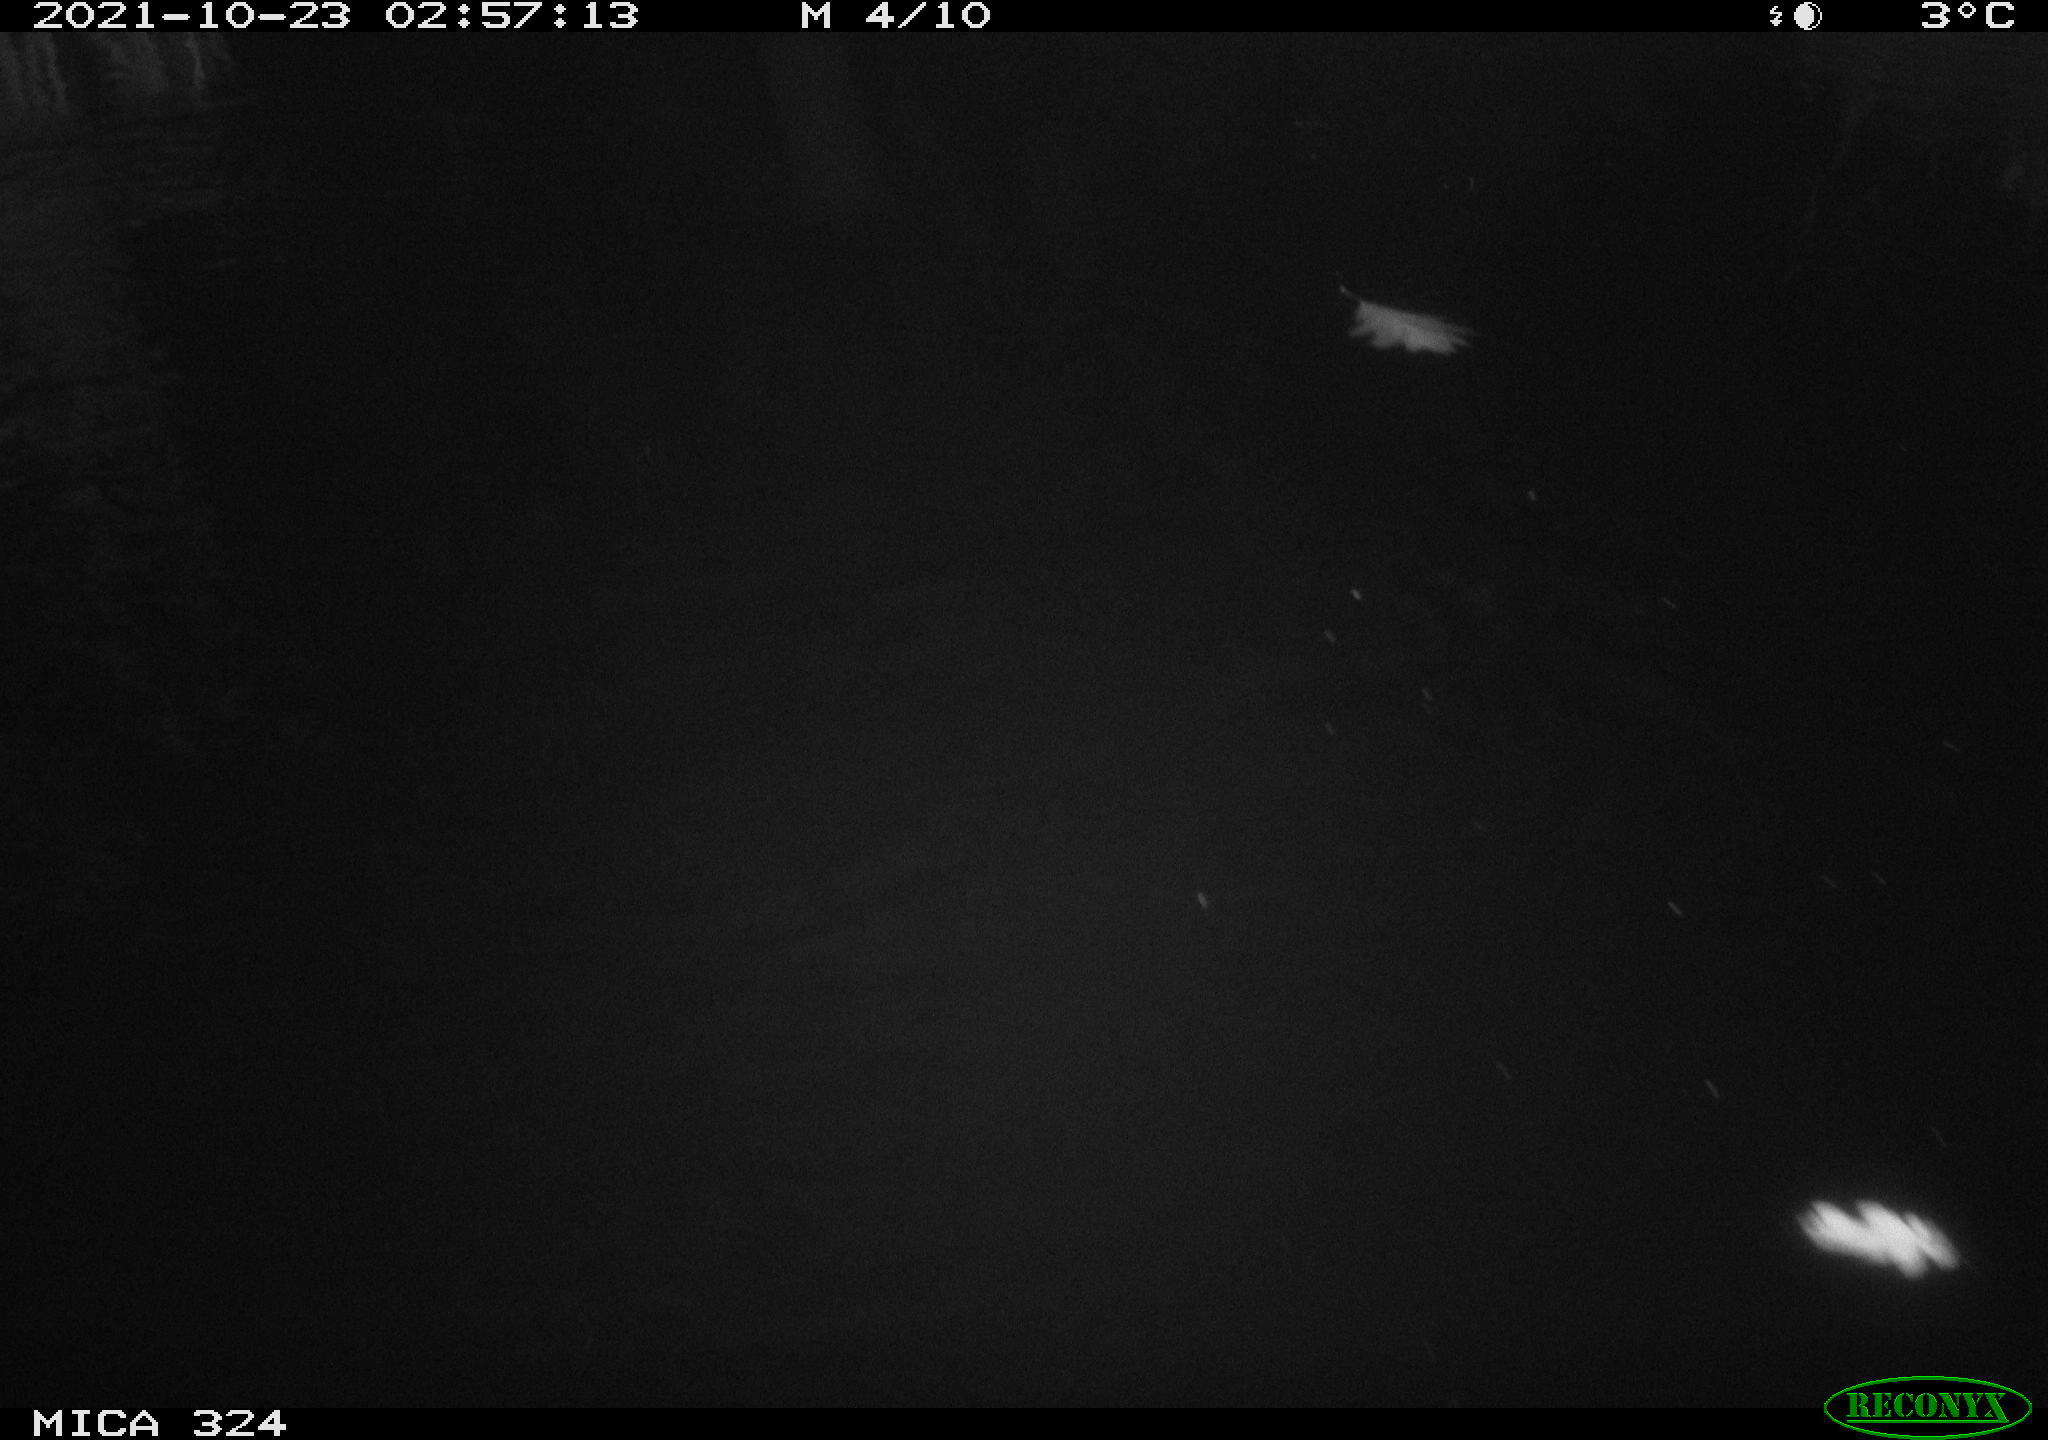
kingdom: Animalia
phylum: Chordata
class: Mammalia
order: Rodentia
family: Cricetidae
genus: Ondatra
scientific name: Ondatra zibethicus
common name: Muskrat
